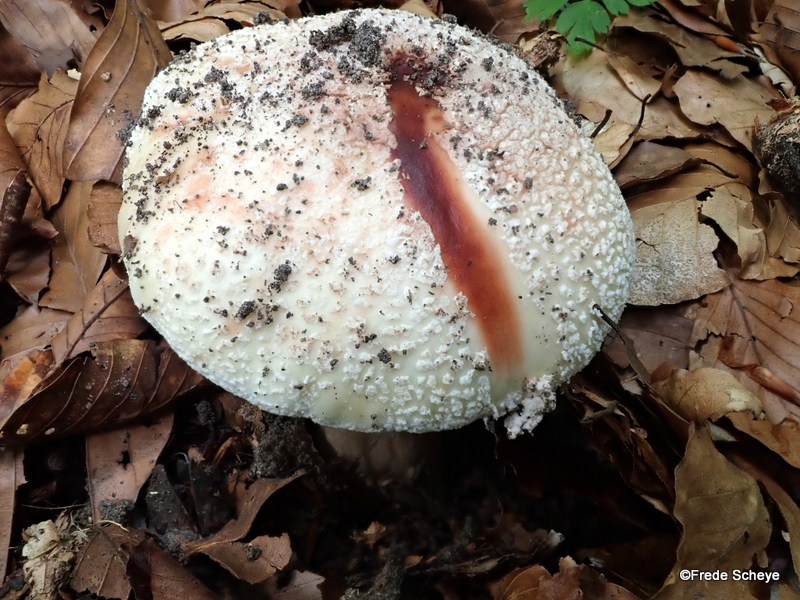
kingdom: Fungi
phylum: Basidiomycota
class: Agaricomycetes
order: Agaricales
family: Amanitaceae
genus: Amanita
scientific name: Amanita rubescens
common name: rødmende fluesvamp
